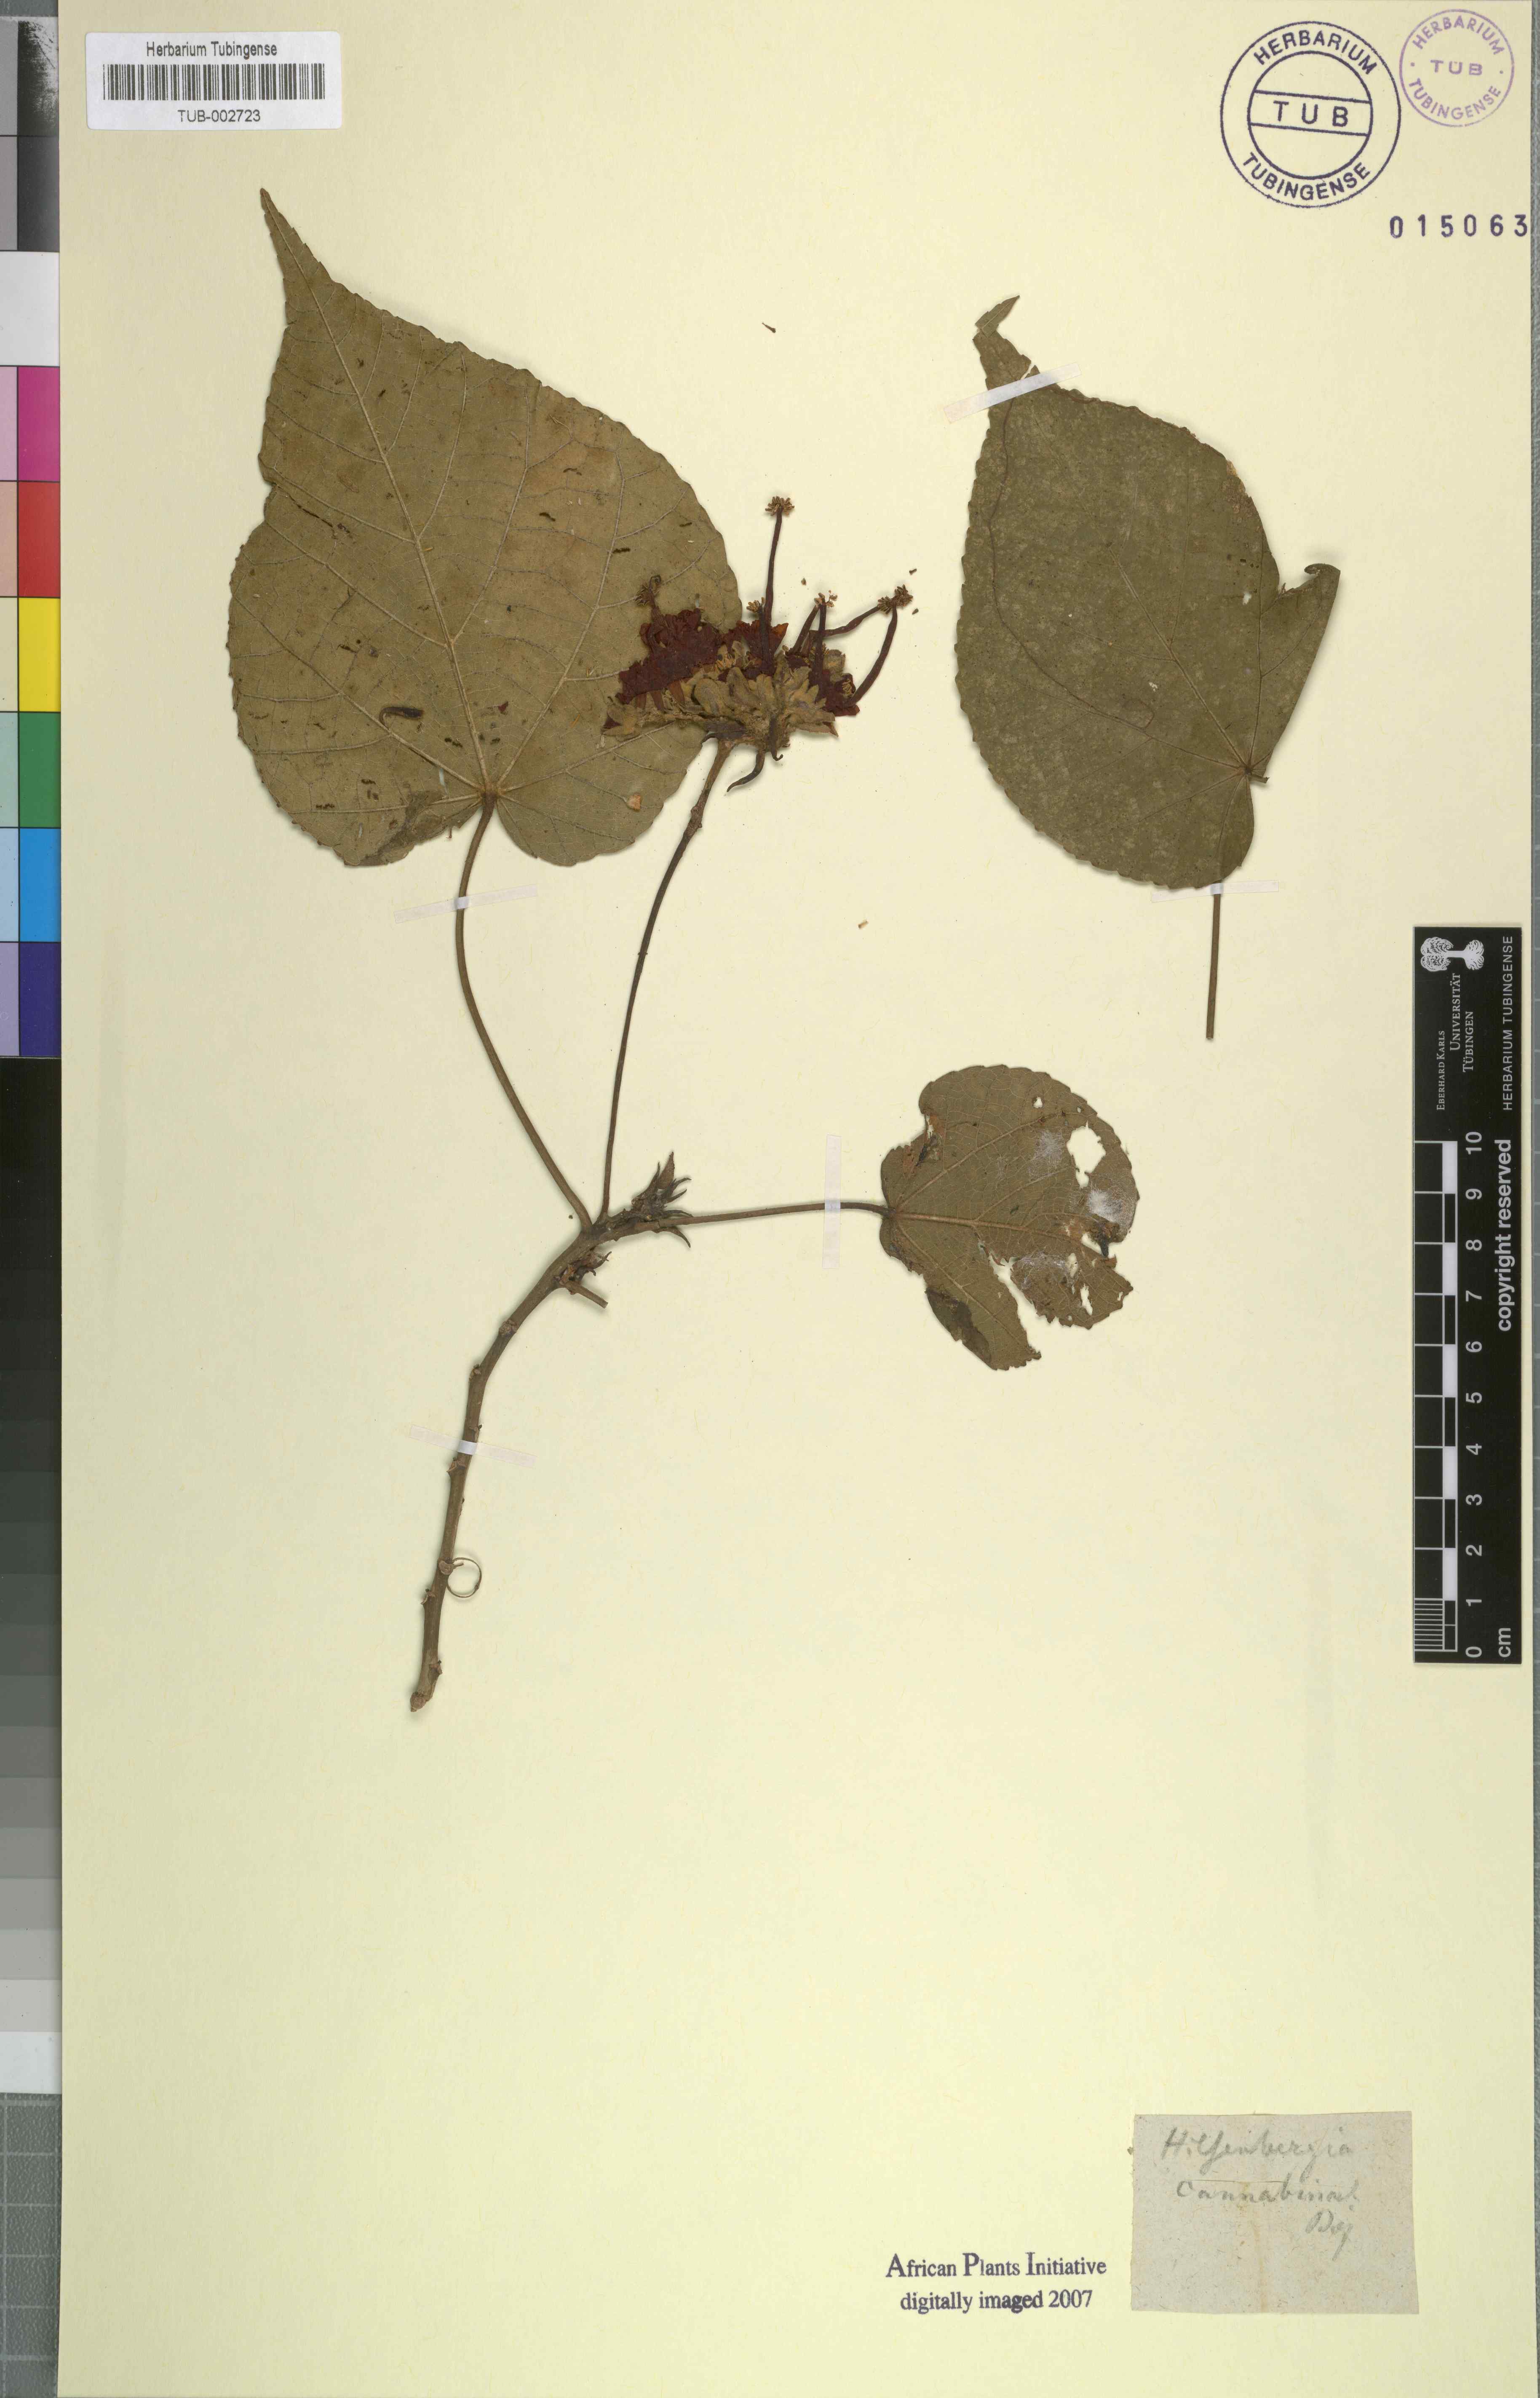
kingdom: Plantae
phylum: Tracheophyta
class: Magnoliopsida
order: Malvales
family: Malvaceae
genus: Dombeya
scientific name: Dombeya cannabina
